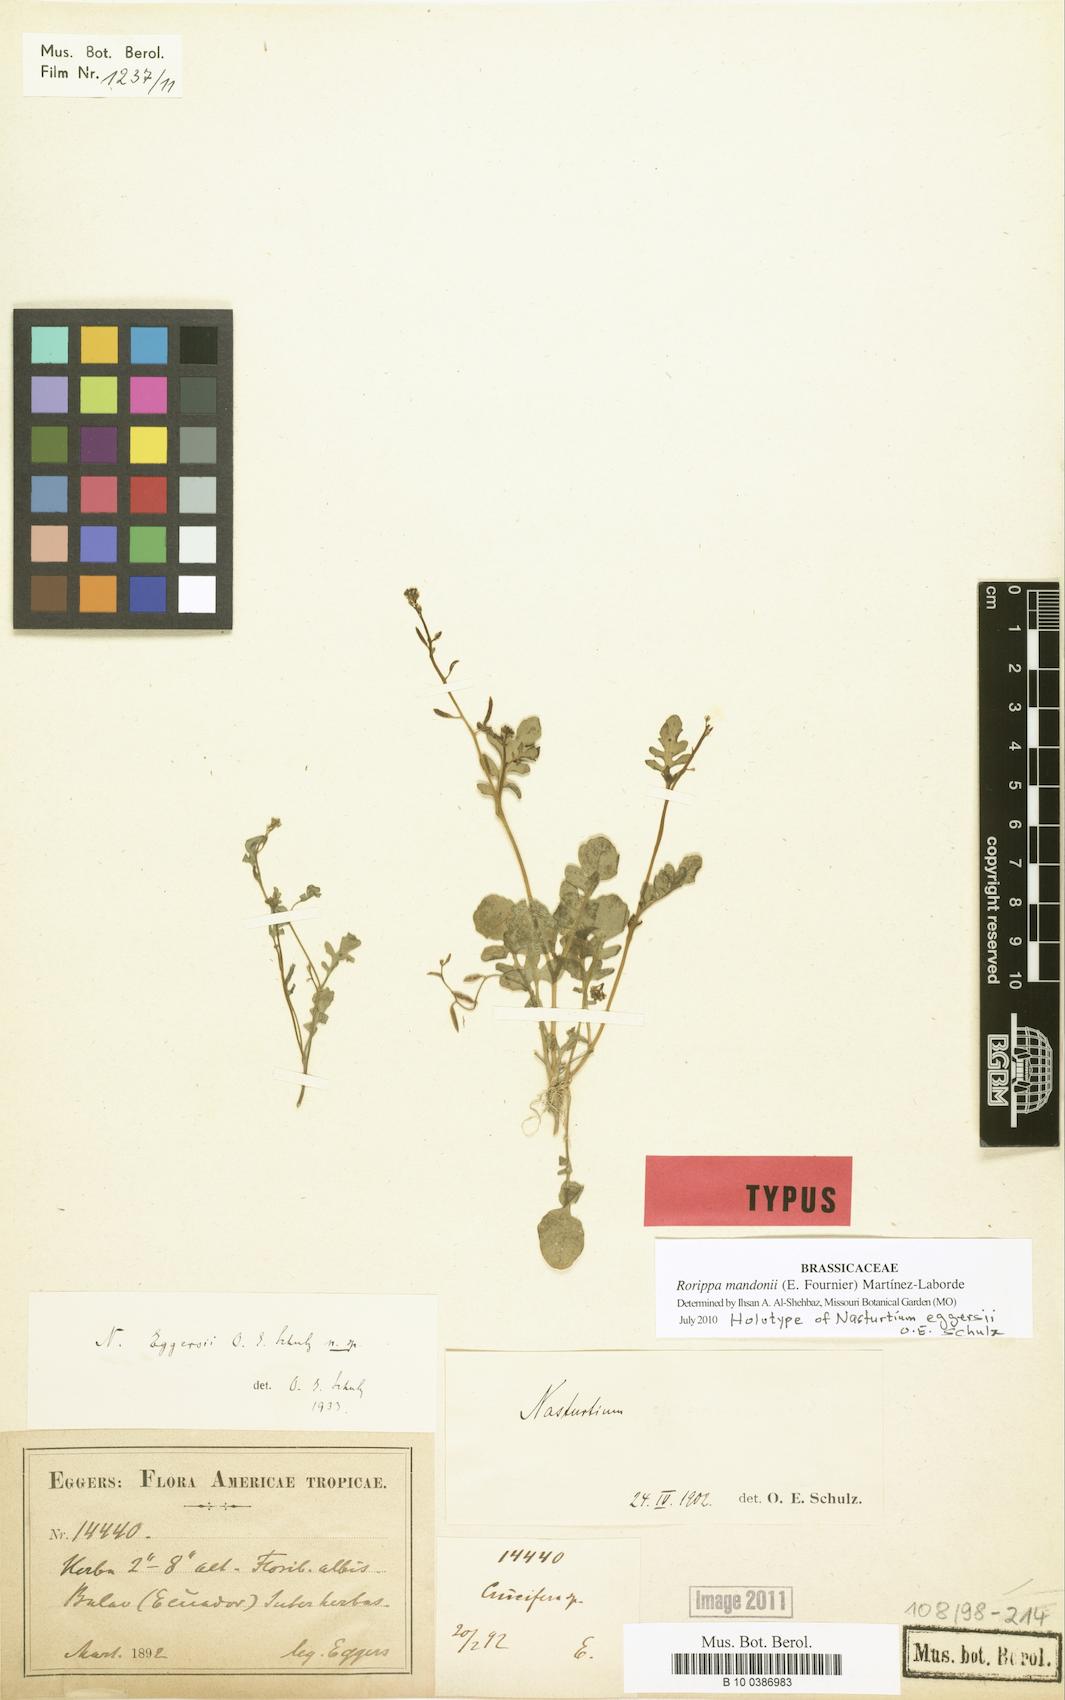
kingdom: Plantae
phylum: Tracheophyta
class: Magnoliopsida
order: Brassicales
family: Brassicaceae
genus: Rorippa
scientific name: Rorippa mandonii
